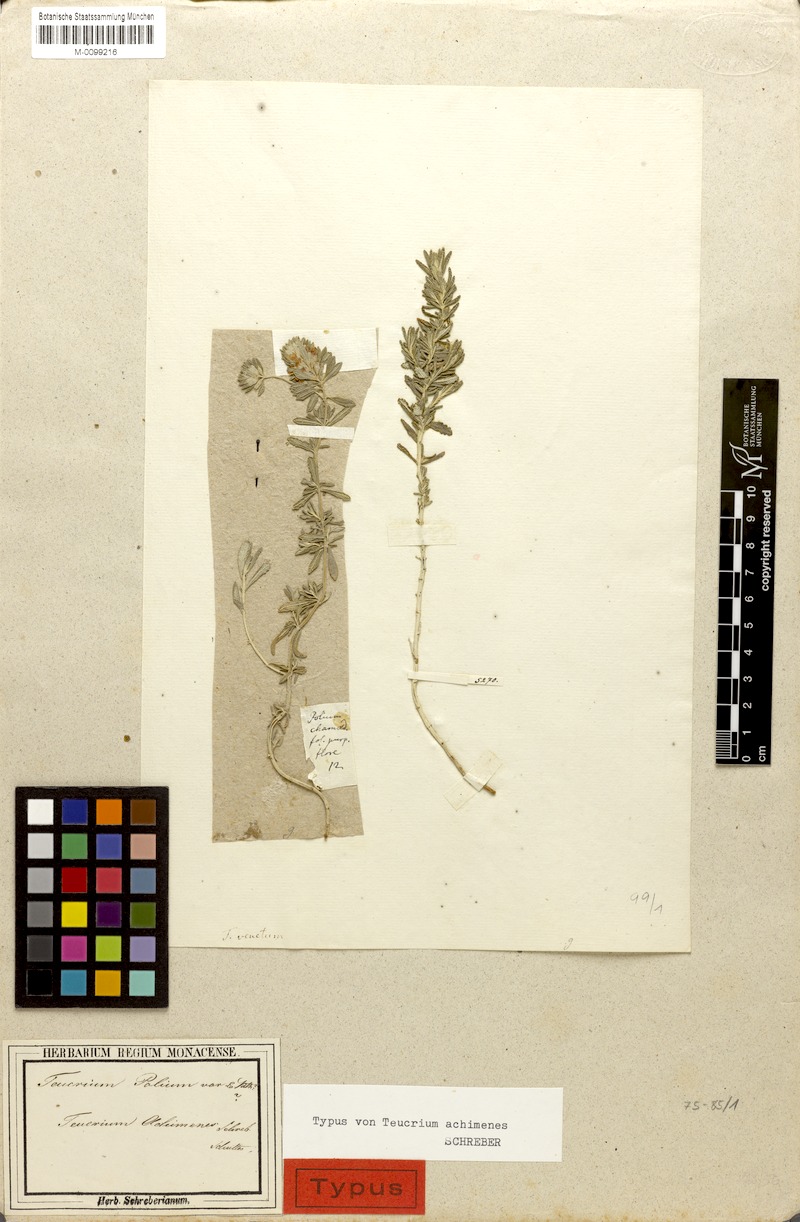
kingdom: Plantae
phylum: Tracheophyta
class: Magnoliopsida
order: Lamiales
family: Lamiaceae
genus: Teucrium
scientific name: Teucrium polium
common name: Poley
